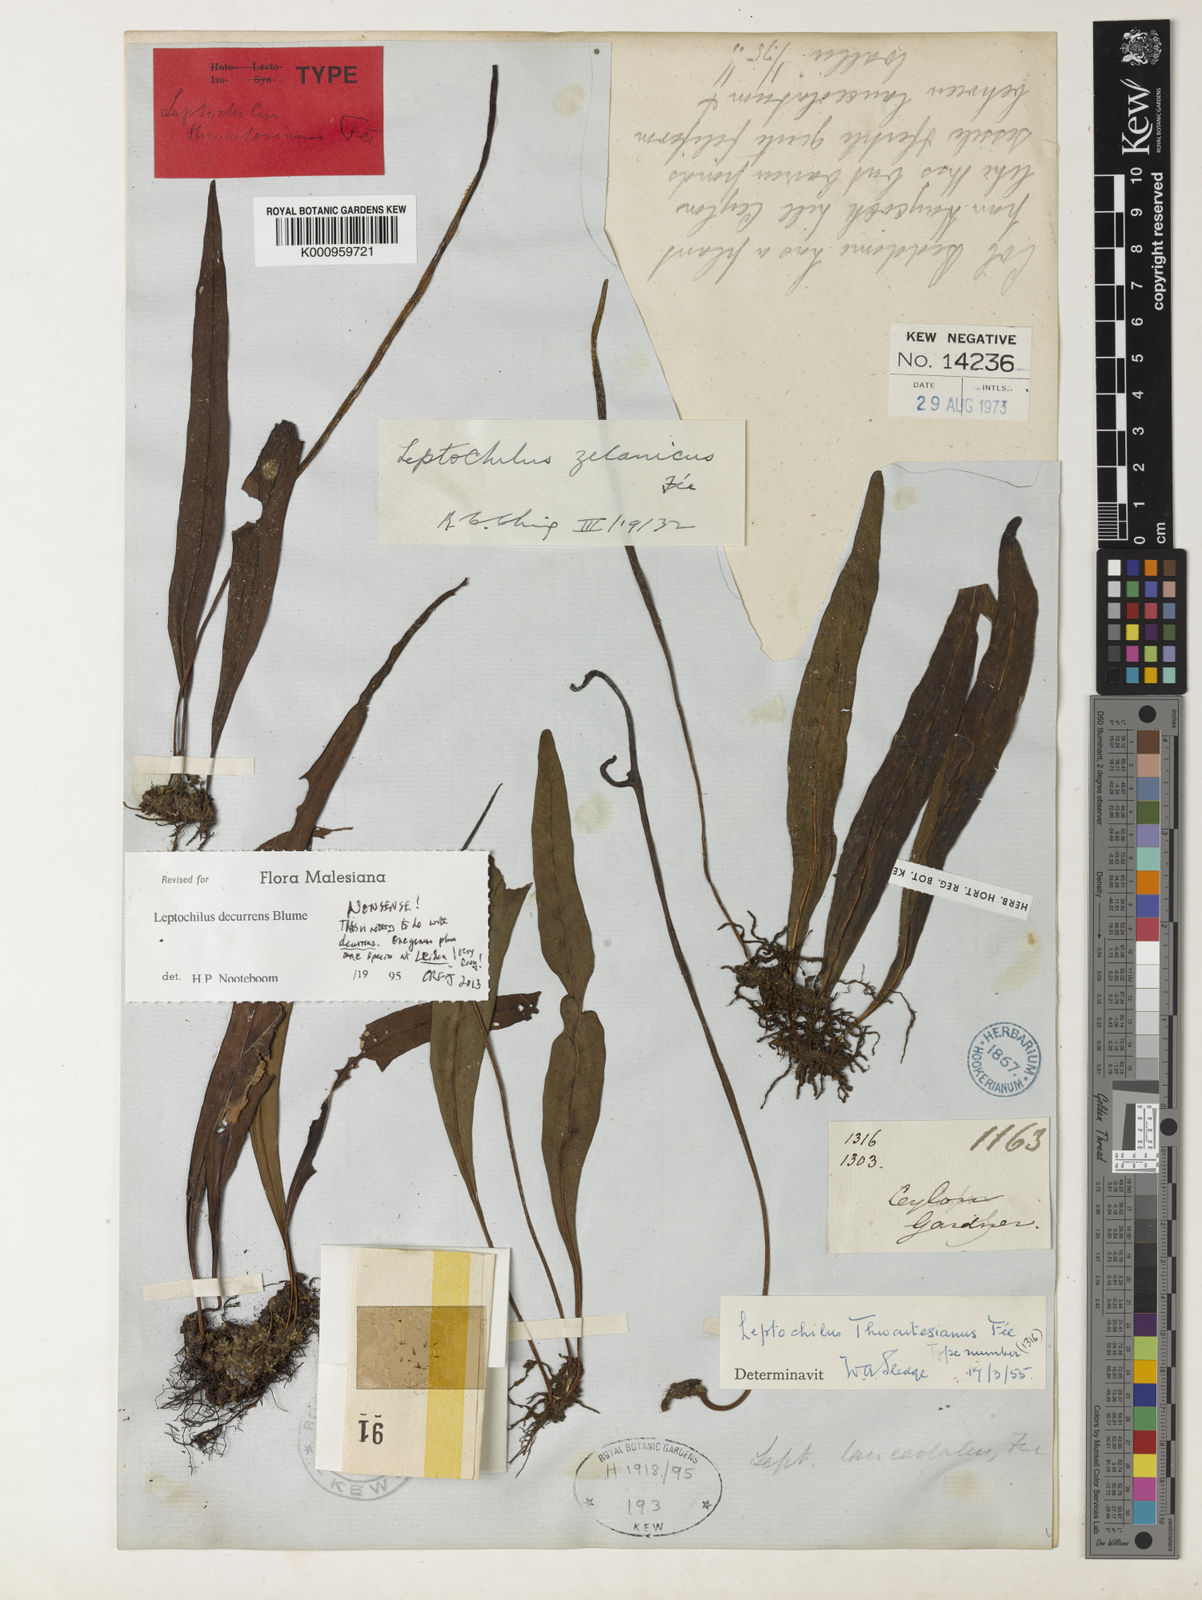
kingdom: Plantae
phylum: Tracheophyta
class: Polypodiopsida
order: Polypodiales
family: Polypodiaceae
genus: Leptochilus
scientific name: Leptochilus decurrens
